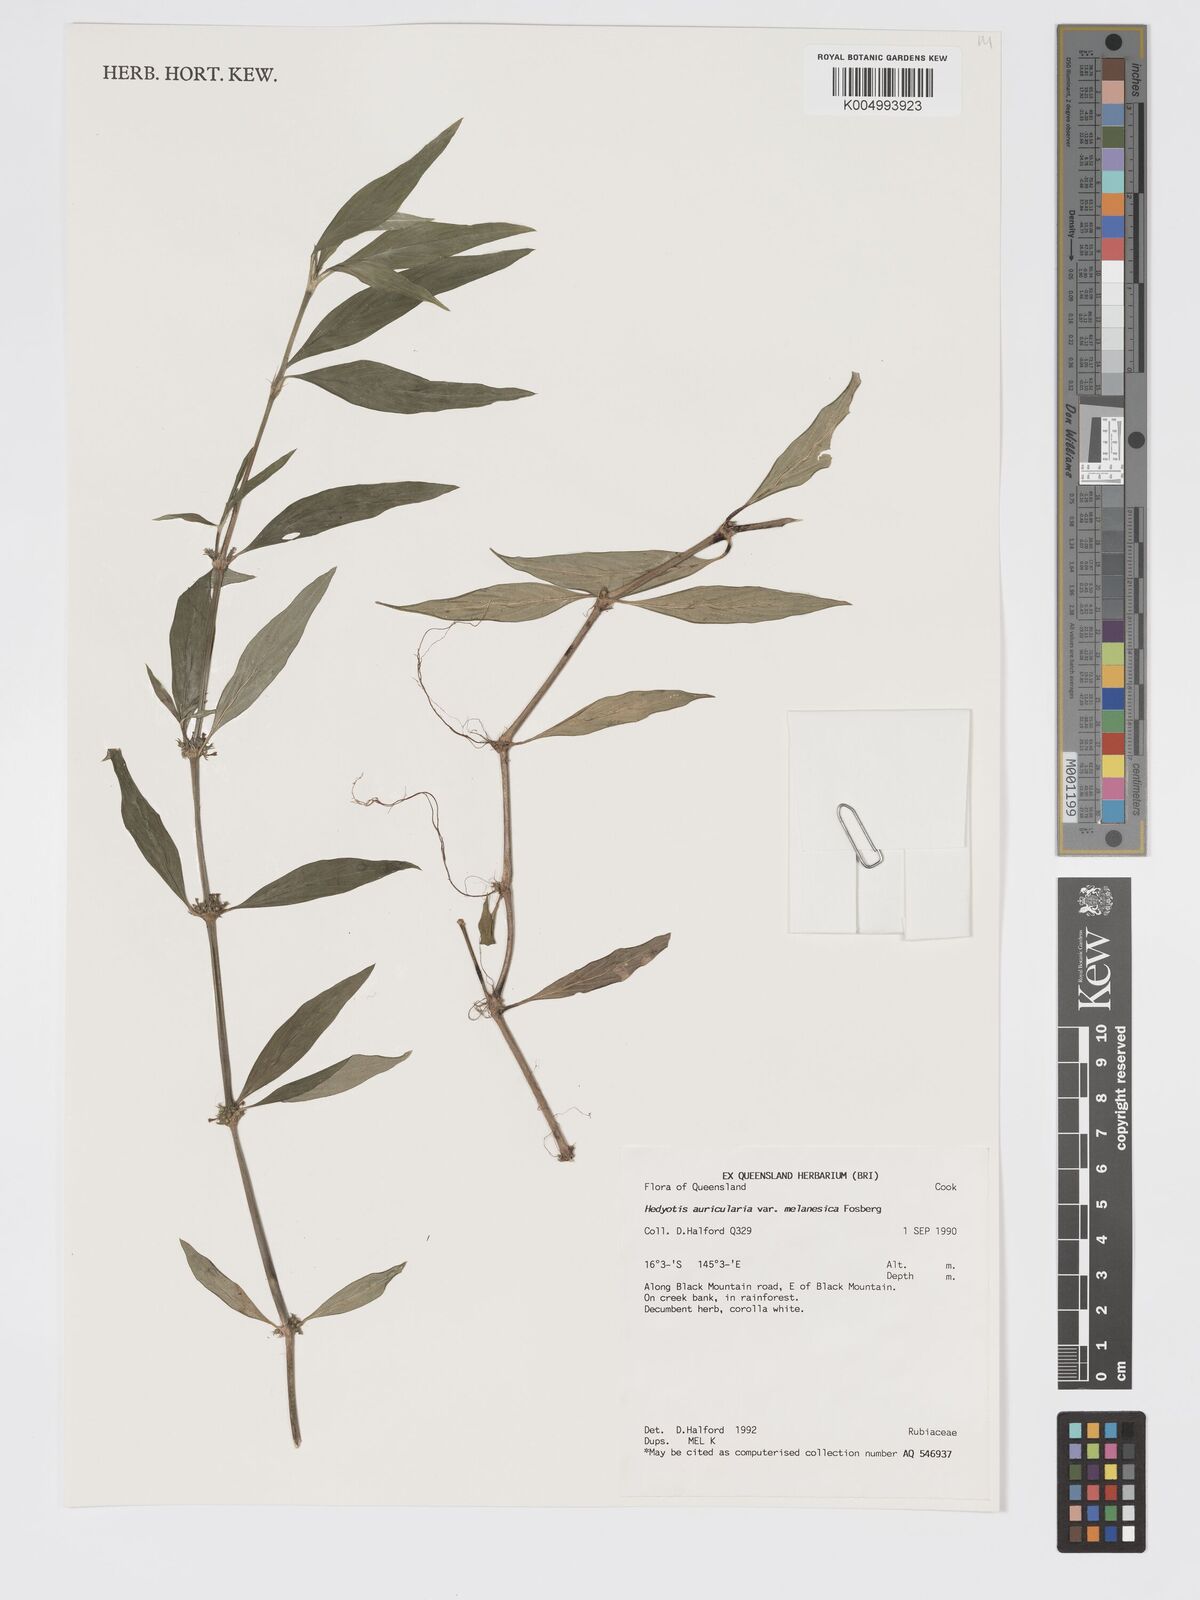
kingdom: Plantae
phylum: Tracheophyta
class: Magnoliopsida
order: Gentianales
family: Rubiaceae
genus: Exallage
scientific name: Exallage lapeyrousei
